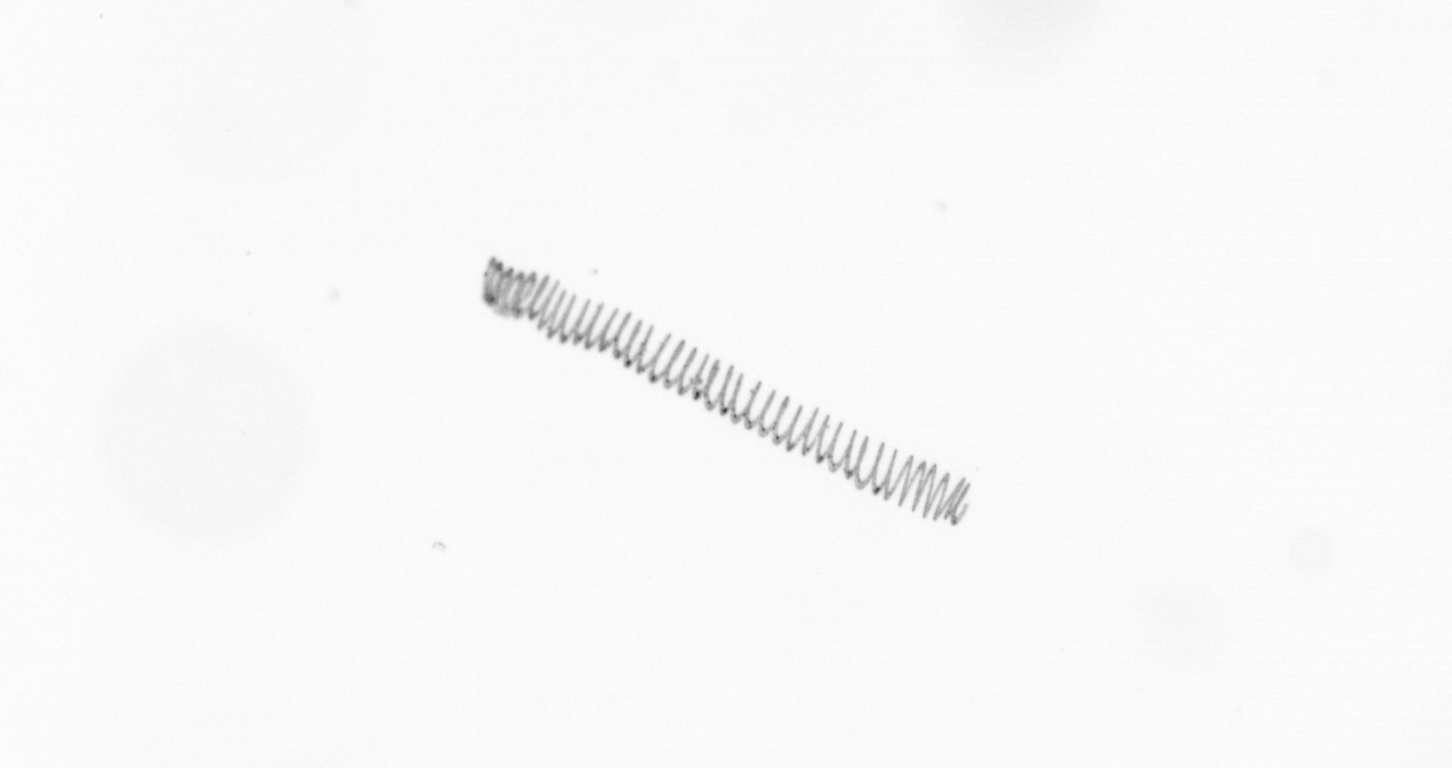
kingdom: Chromista
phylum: Ochrophyta
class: Bacillariophyceae
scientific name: Bacillariophyceae
